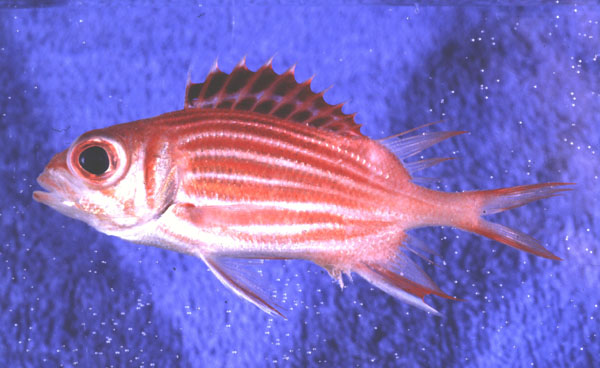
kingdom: Animalia
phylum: Chordata
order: Beryciformes
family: Holocentridae
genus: Sargocentron
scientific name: Sargocentron diadema
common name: Crown squirrelfish
